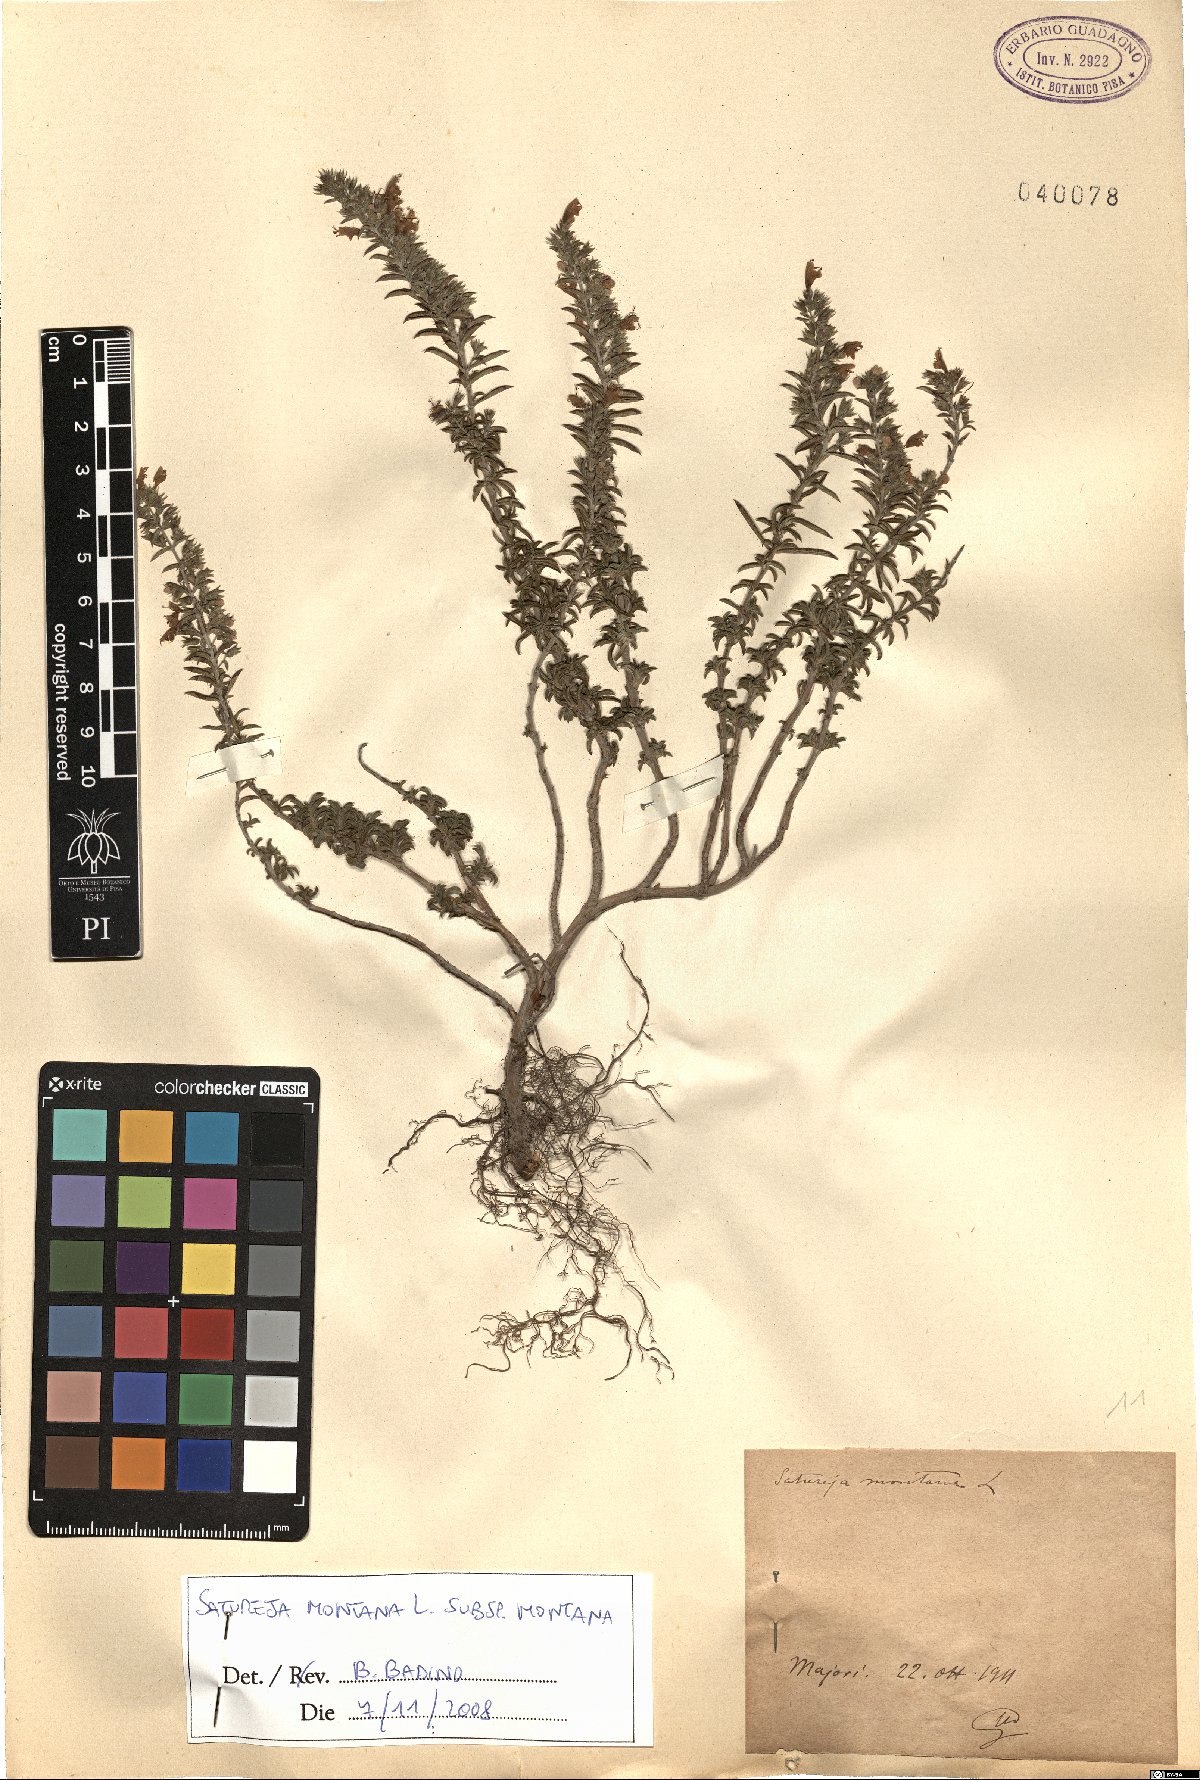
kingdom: Plantae
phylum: Tracheophyta
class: Magnoliopsida
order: Lamiales
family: Lamiaceae
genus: Satureja
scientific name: Satureja montana
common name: Winter savory
